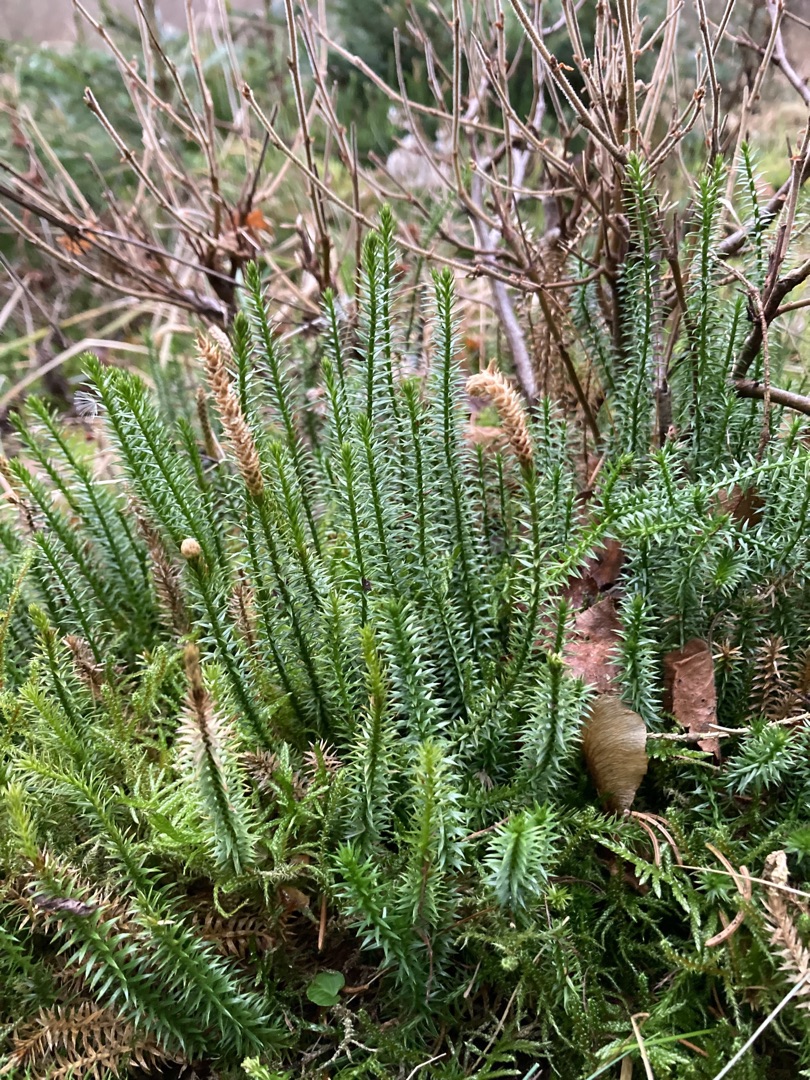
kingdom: Plantae
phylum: Tracheophyta
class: Lycopodiopsida
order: Lycopodiales
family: Lycopodiaceae
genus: Spinulum
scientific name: Spinulum annotinum
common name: Femradet ulvefod
